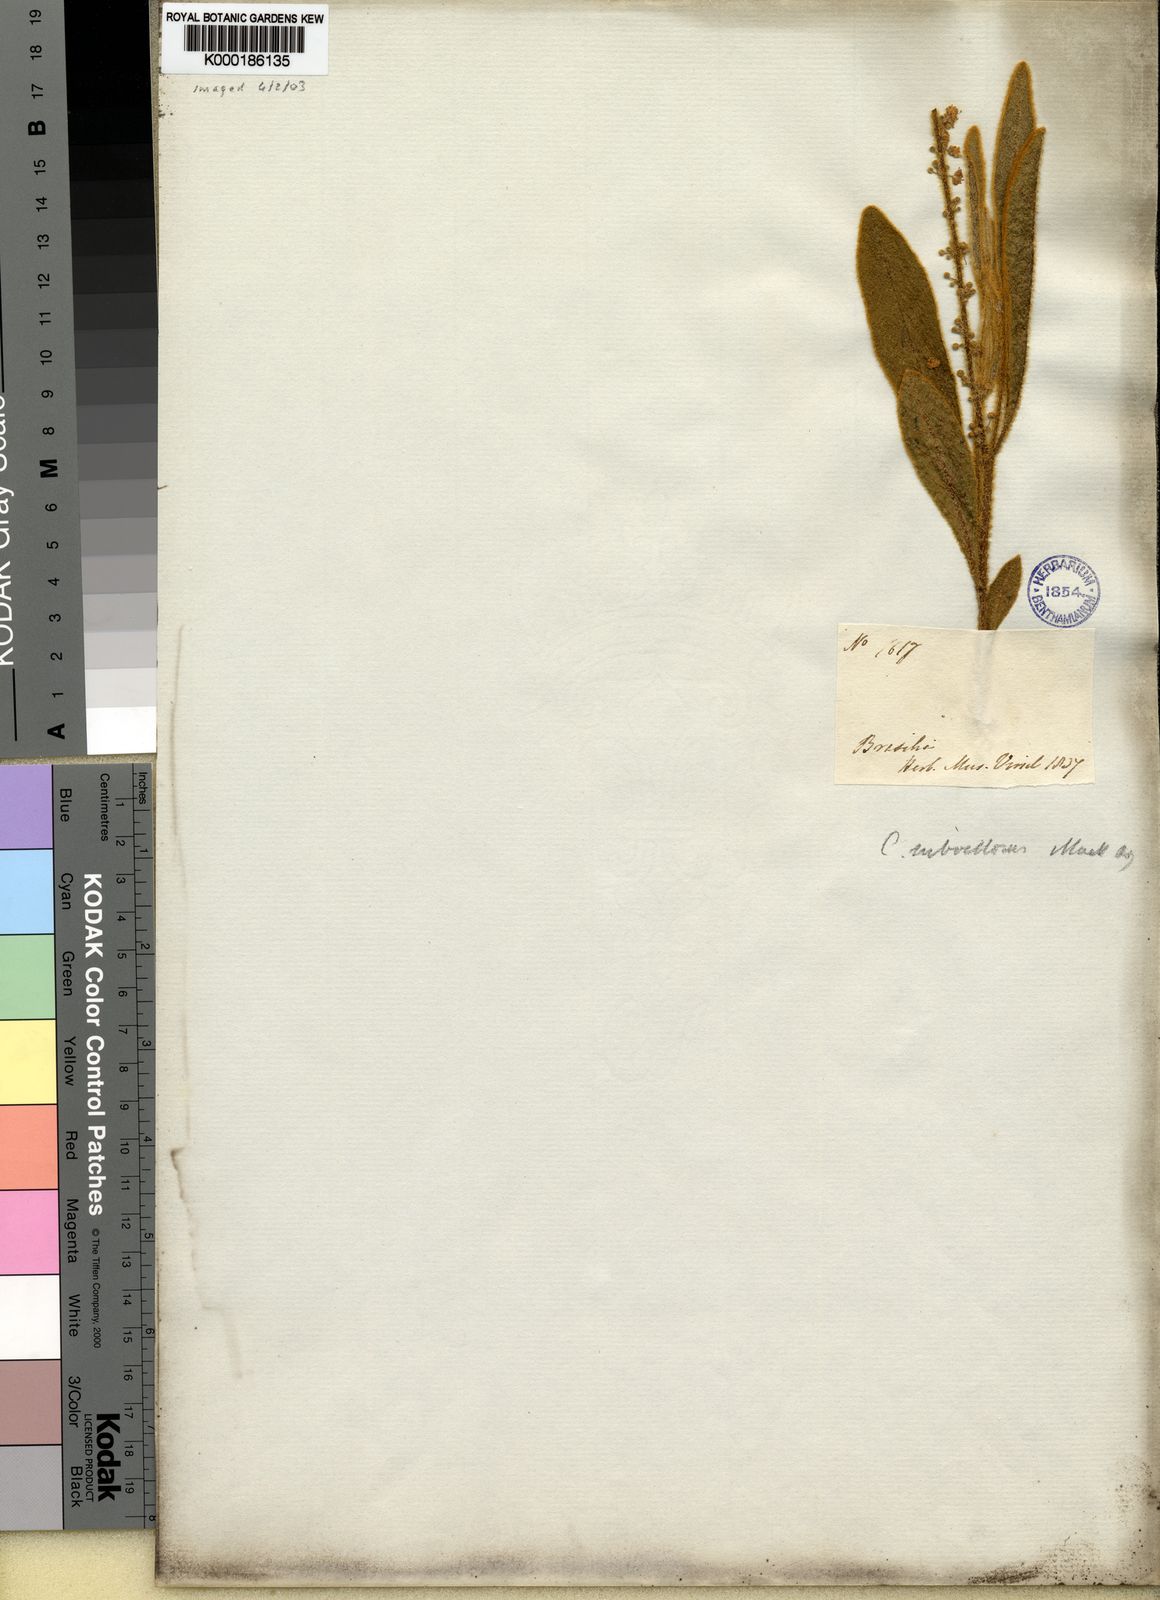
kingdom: Plantae
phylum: Tracheophyta
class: Magnoliopsida
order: Malpighiales
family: Euphorbiaceae
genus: Croton
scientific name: Croton
